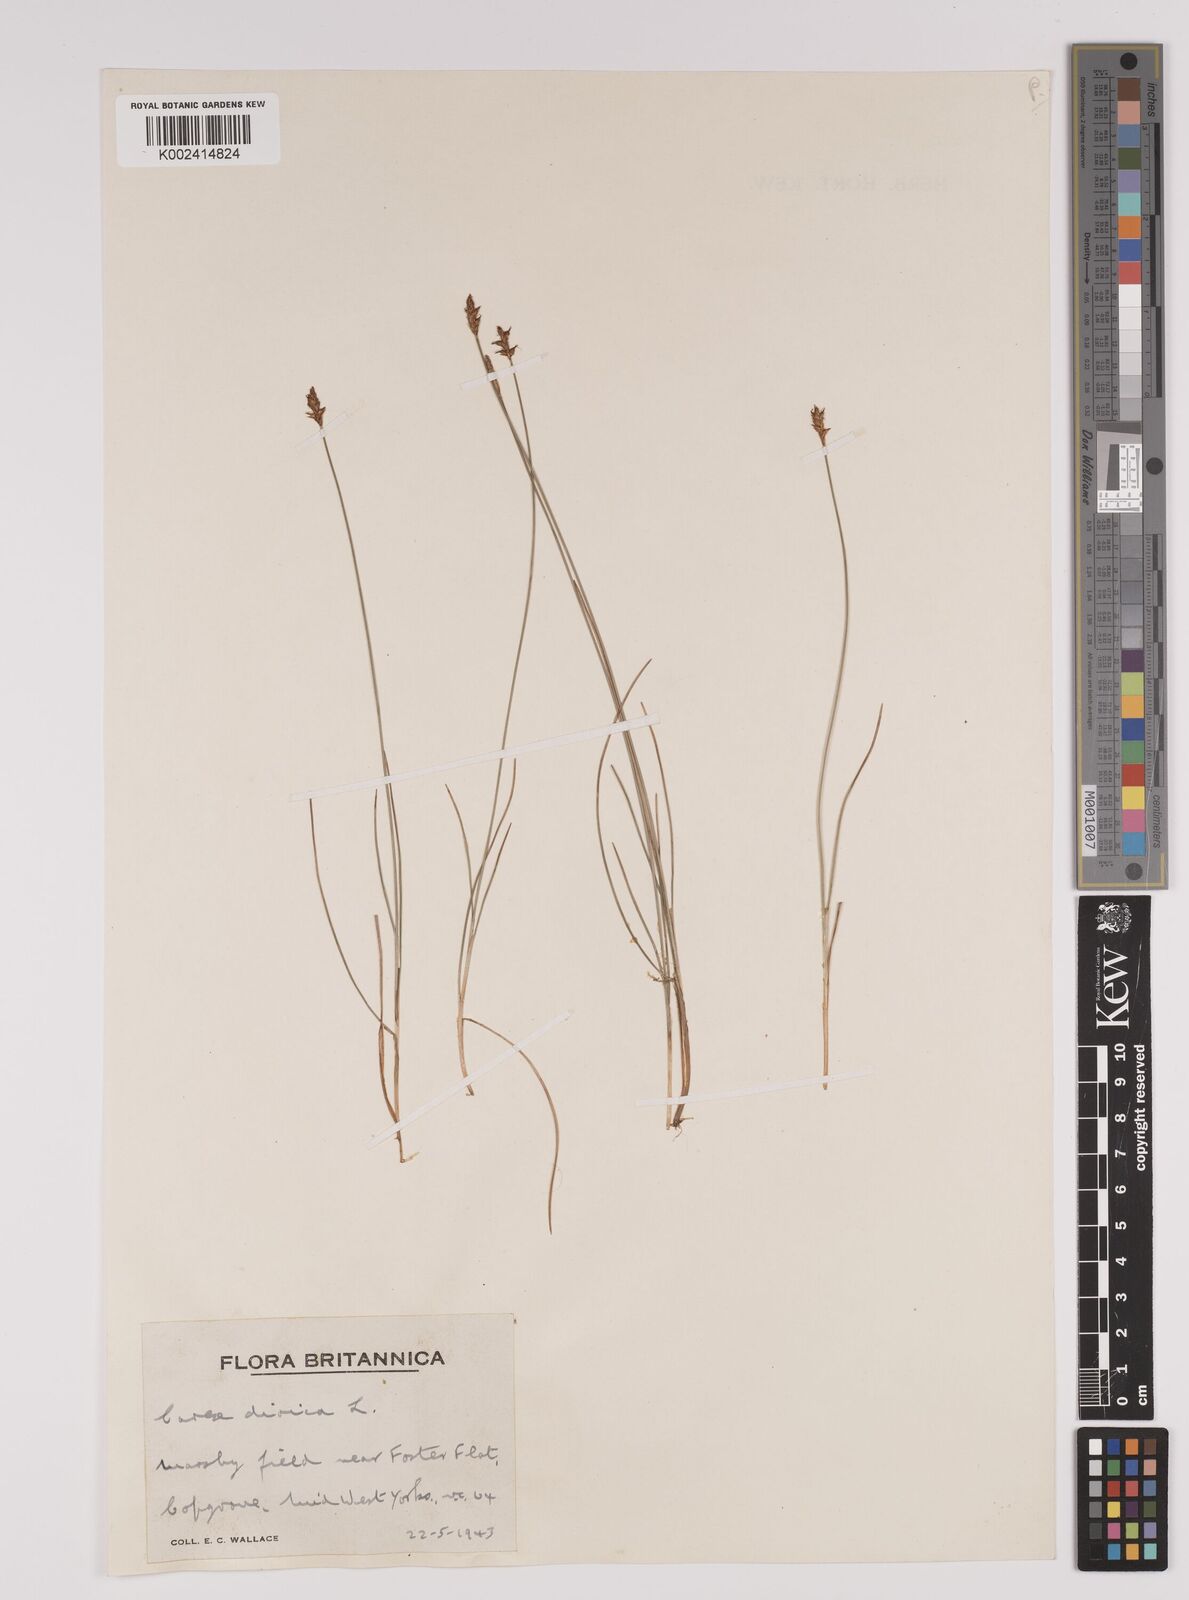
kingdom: Plantae
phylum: Tracheophyta
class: Liliopsida
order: Poales
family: Cyperaceae
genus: Carex
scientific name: Carex dioica
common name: Dioecious sedge
